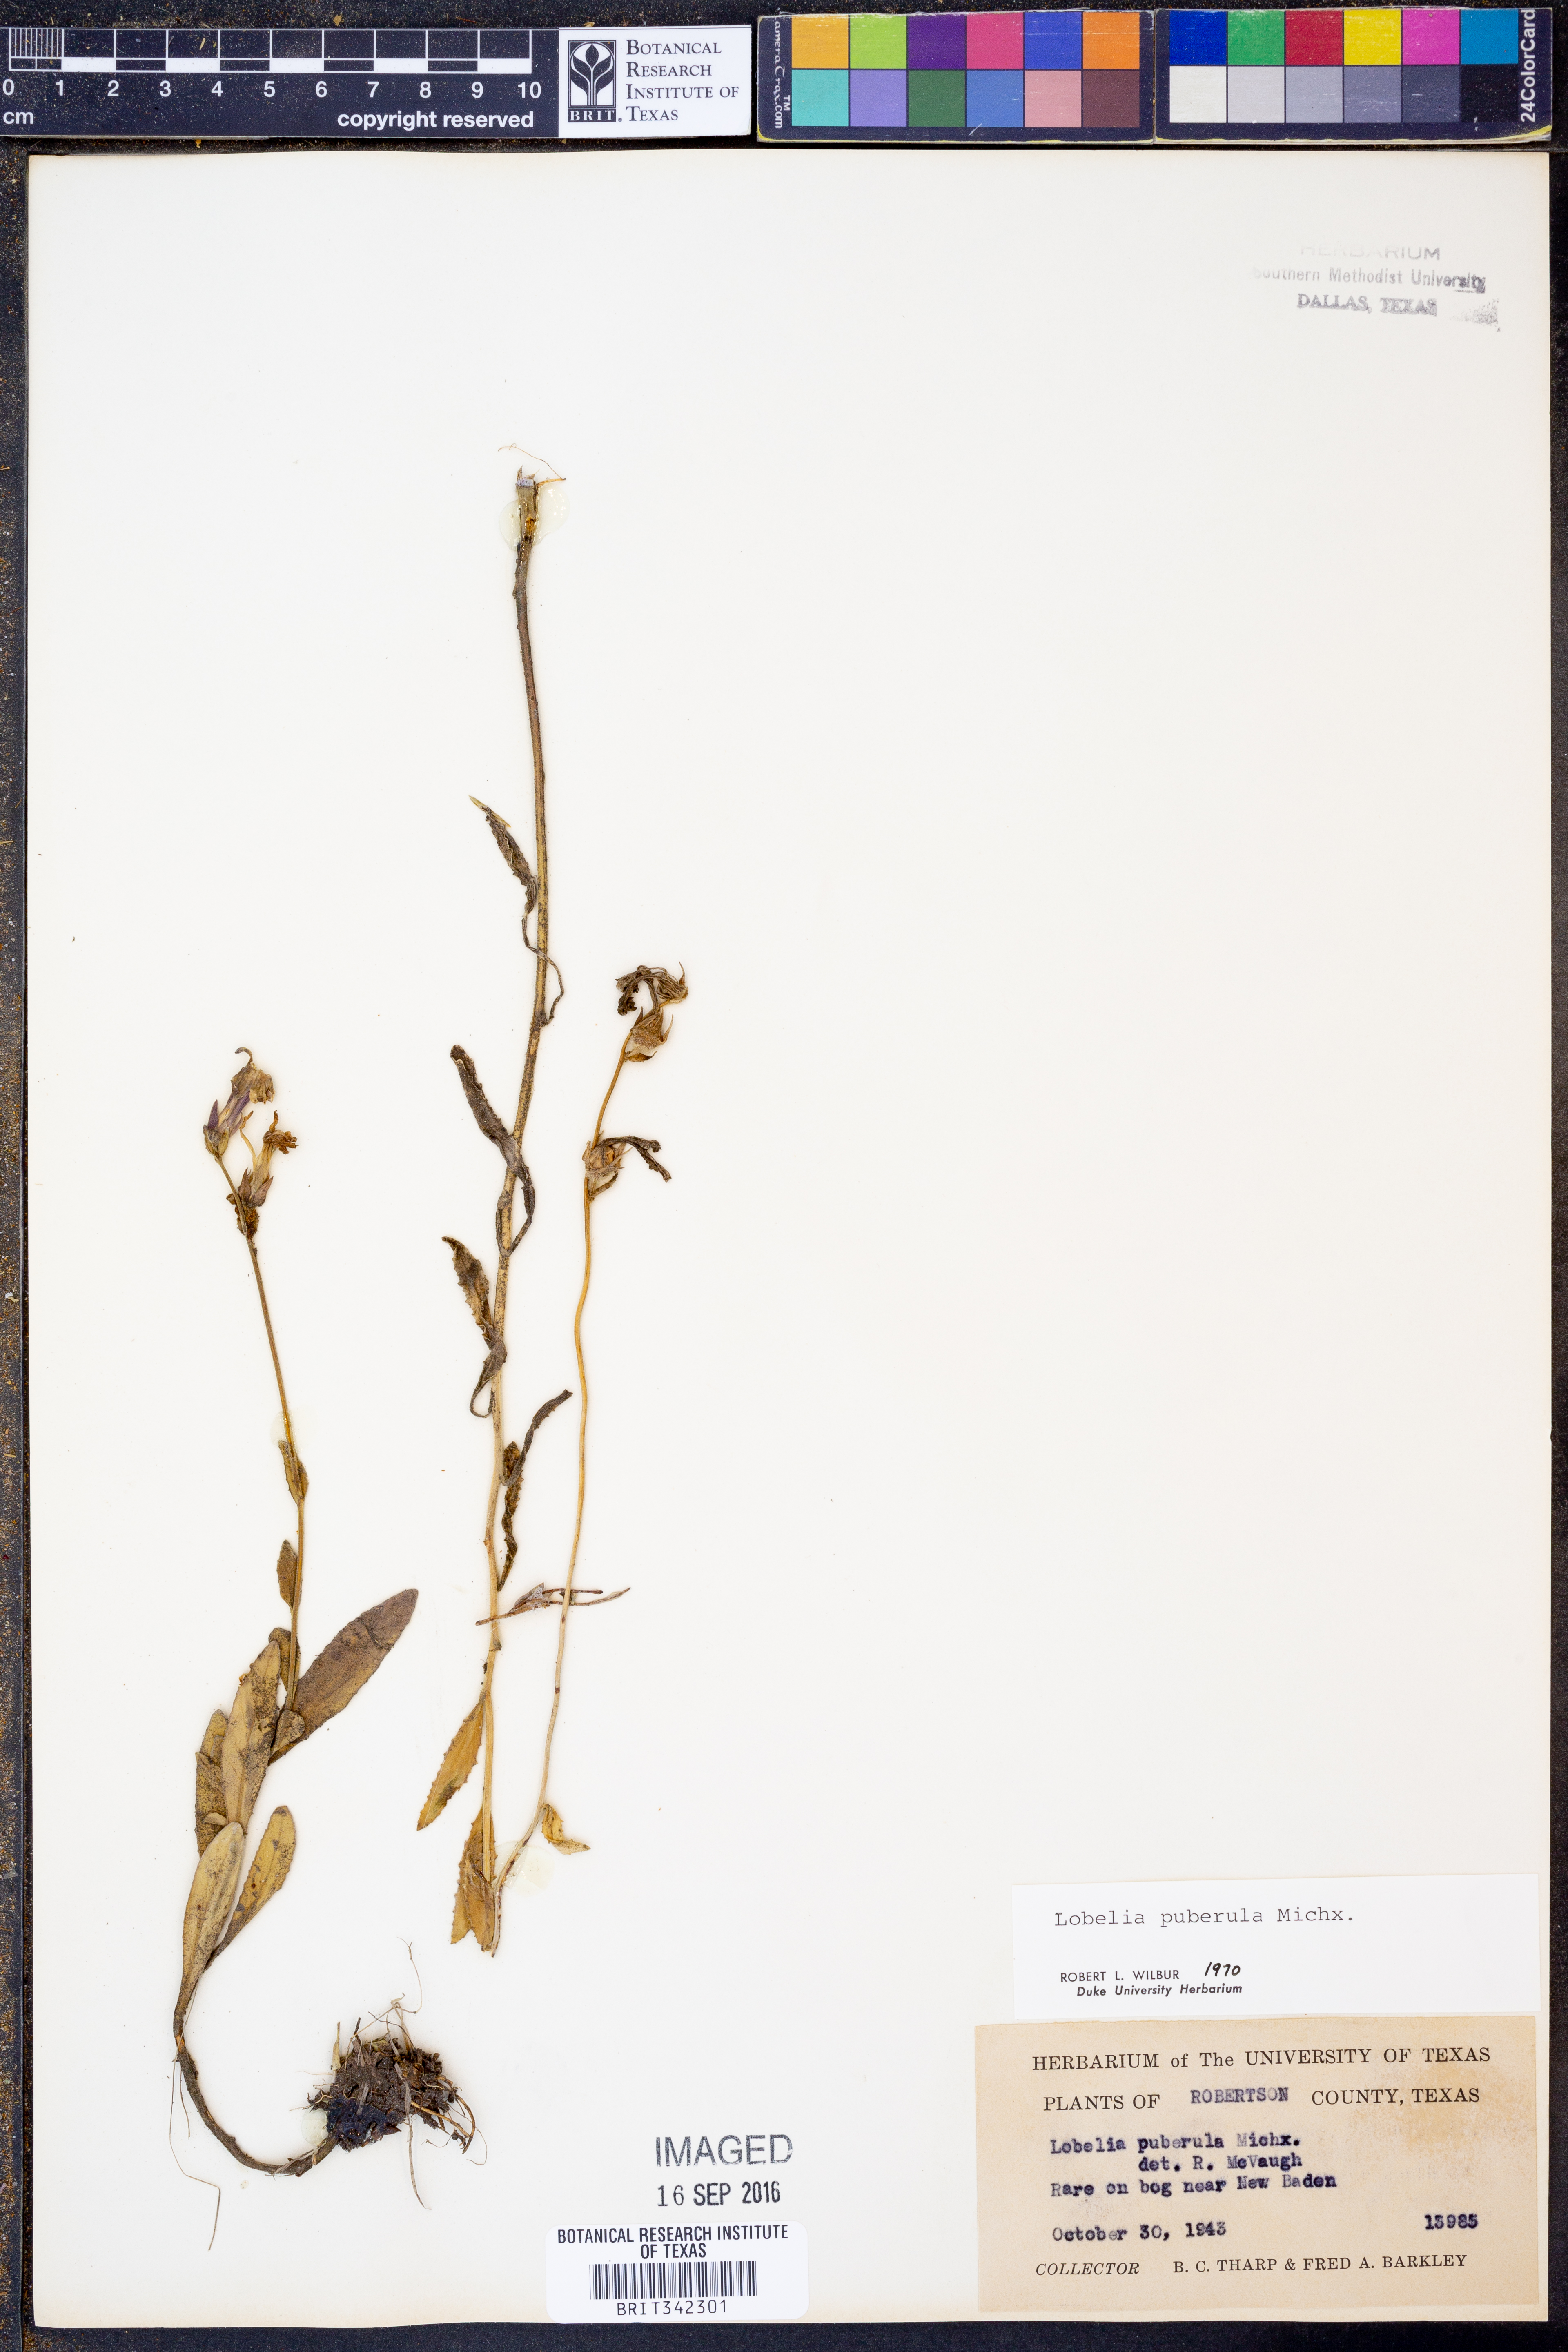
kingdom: Plantae
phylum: Tracheophyta
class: Magnoliopsida
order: Asterales
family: Campanulaceae
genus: Lobelia
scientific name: Lobelia puberula
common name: Purple dewdrop
